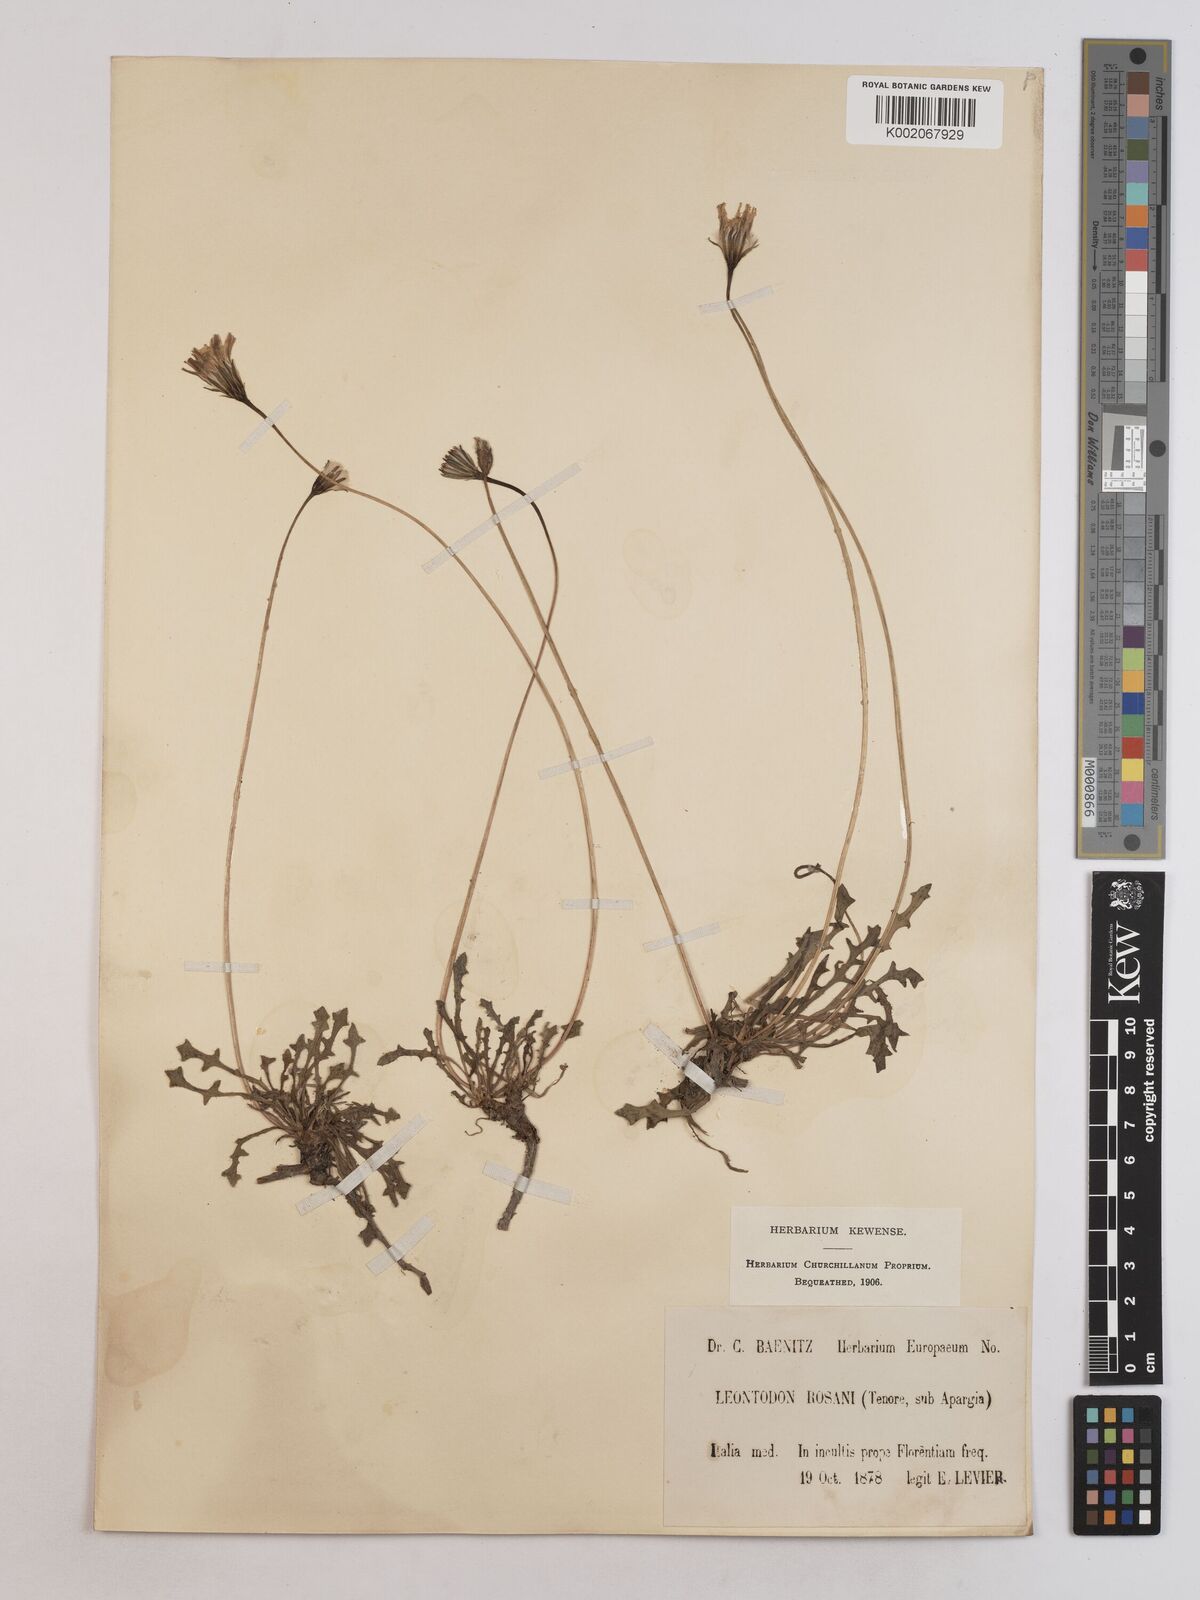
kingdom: Plantae
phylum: Tracheophyta
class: Magnoliopsida
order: Asterales
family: Asteraceae
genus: Leontodon
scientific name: Leontodon rosanoi
